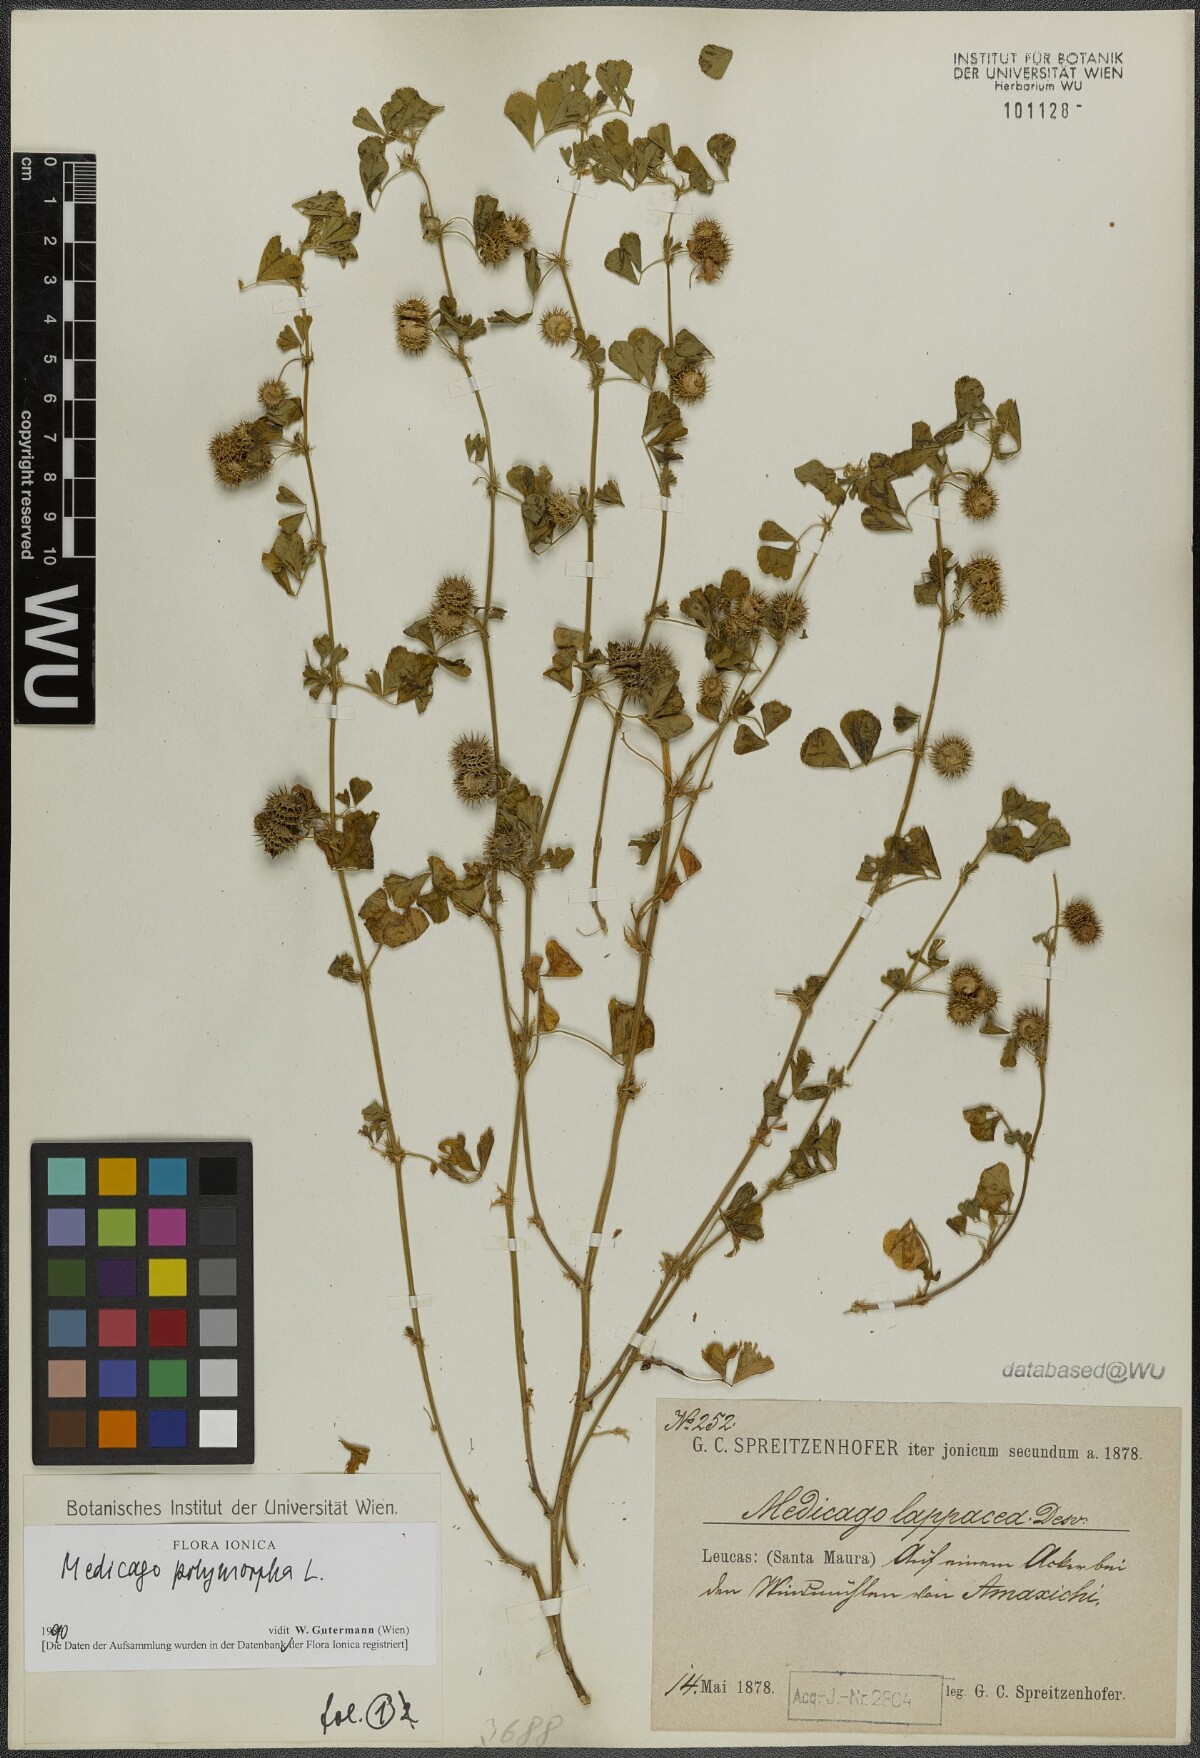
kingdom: Plantae
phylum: Tracheophyta
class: Magnoliopsida
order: Fabales
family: Fabaceae
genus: Medicago
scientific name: Medicago polymorpha
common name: Burclover
